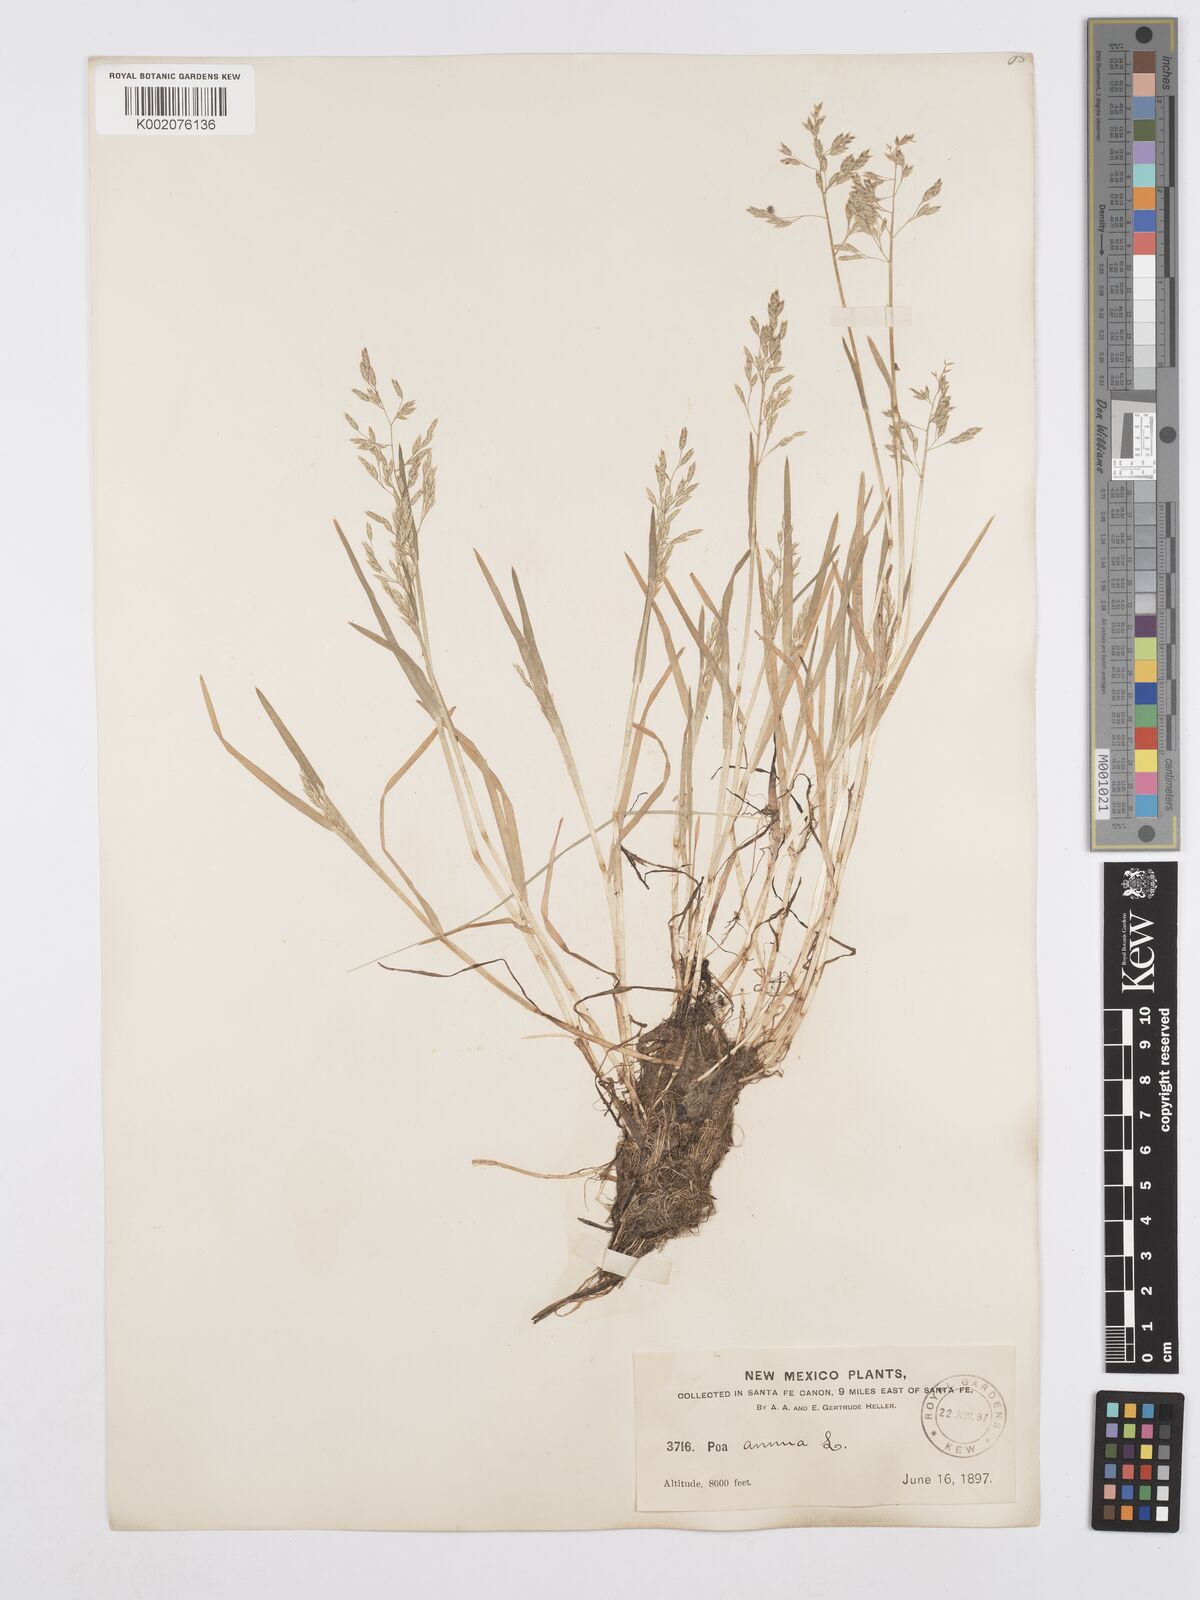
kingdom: Plantae
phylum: Tracheophyta
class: Liliopsida
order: Poales
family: Poaceae
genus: Poa
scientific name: Poa annua
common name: Annual bluegrass
